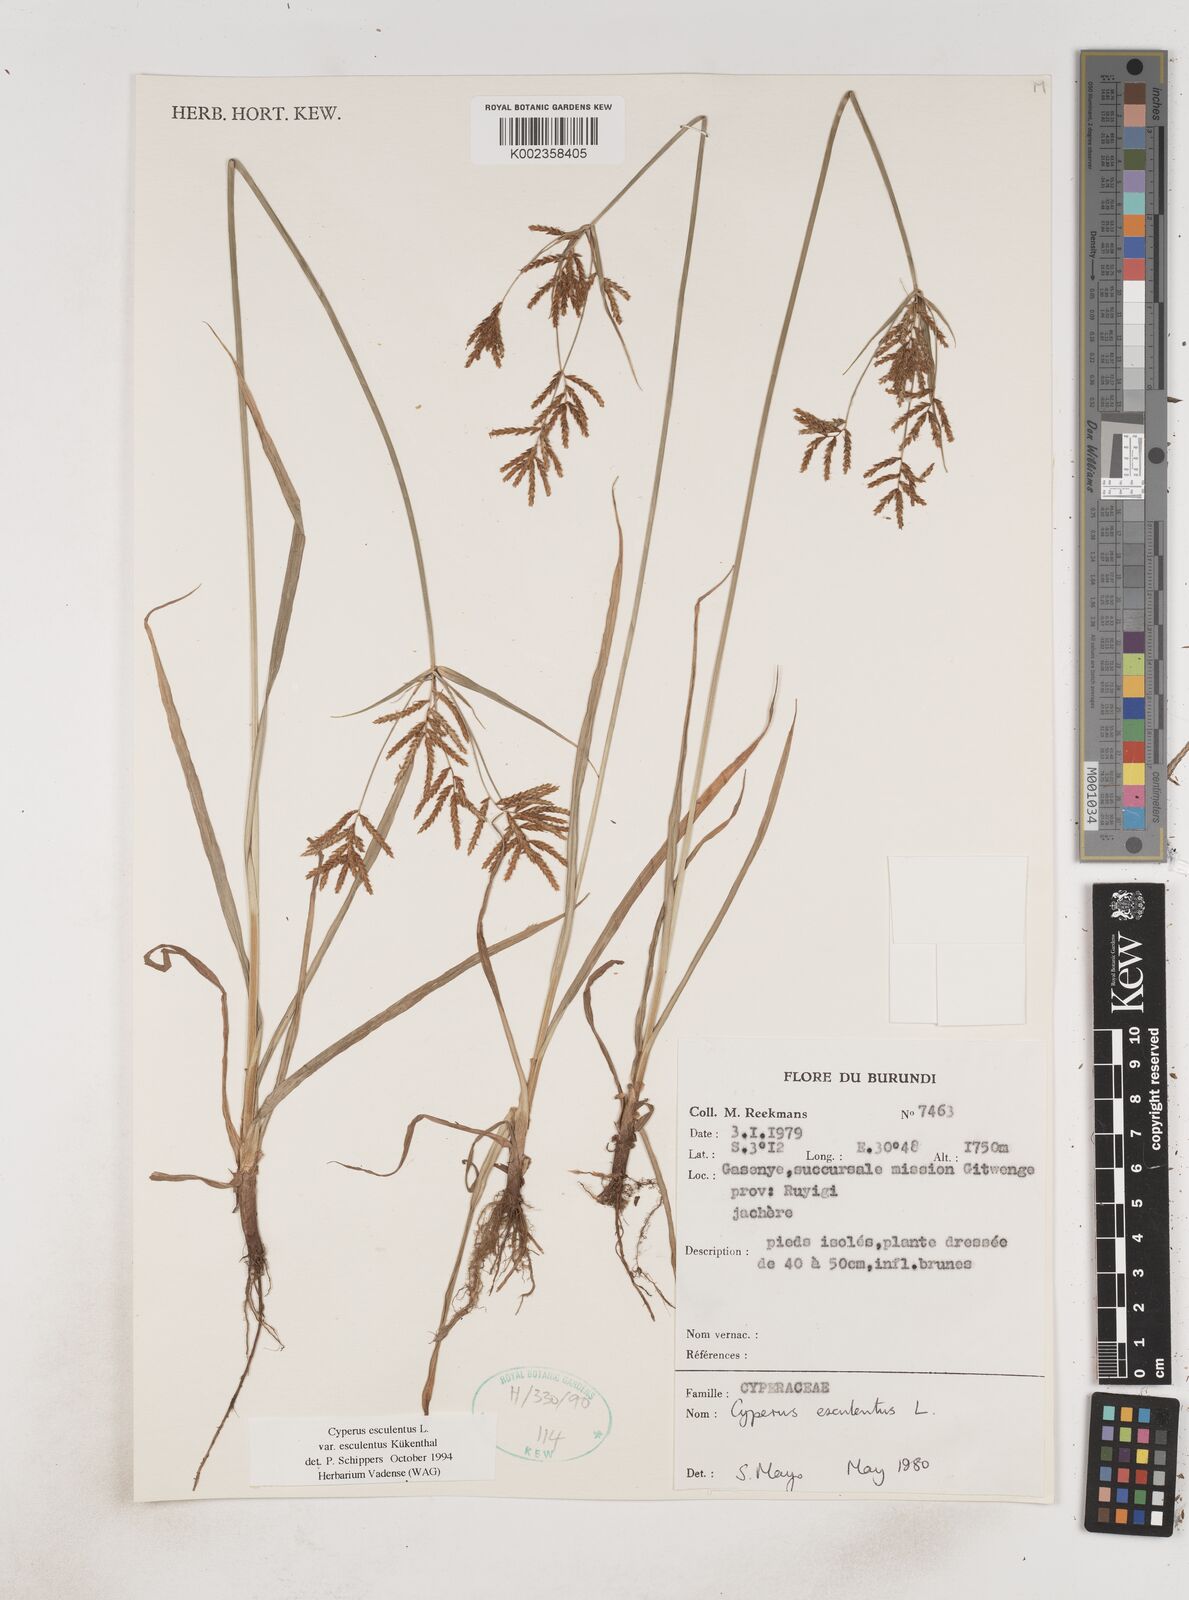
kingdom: Plantae
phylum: Tracheophyta
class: Liliopsida
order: Poales
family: Cyperaceae
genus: Cyperus
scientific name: Cyperus esculentus
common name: Yellow nutsedge
